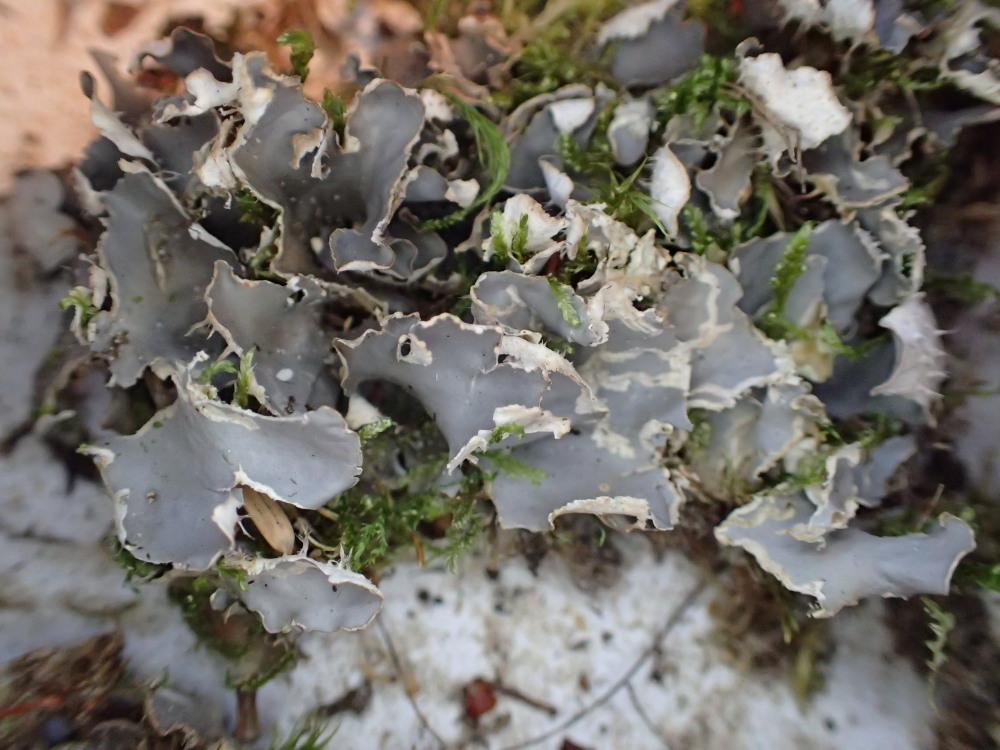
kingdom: Fungi
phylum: Ascomycota
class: Lecanoromycetes
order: Peltigerales
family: Peltigeraceae
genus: Peltigera
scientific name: Peltigera hymenina
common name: hinde-skjoldlav
